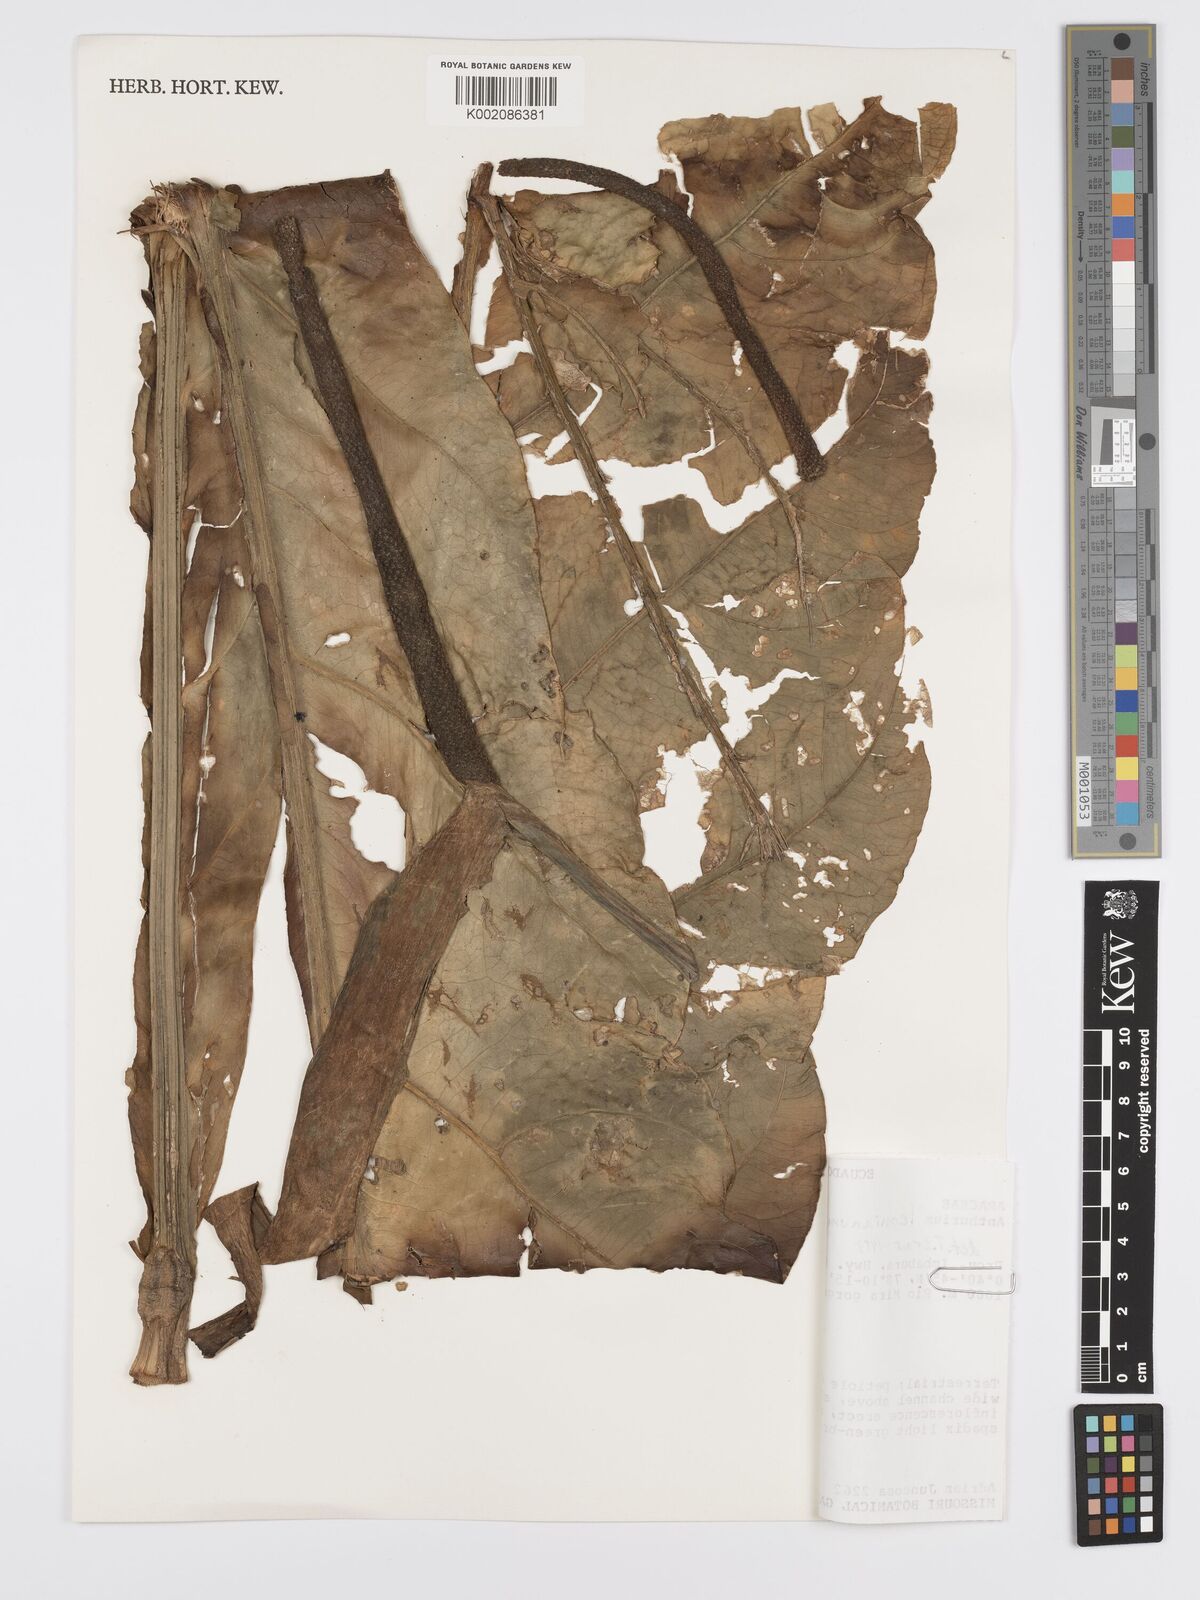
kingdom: Plantae
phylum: Tracheophyta
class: Liliopsida
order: Alismatales
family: Araceae
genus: Anthurium
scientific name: Anthurium leonianum
